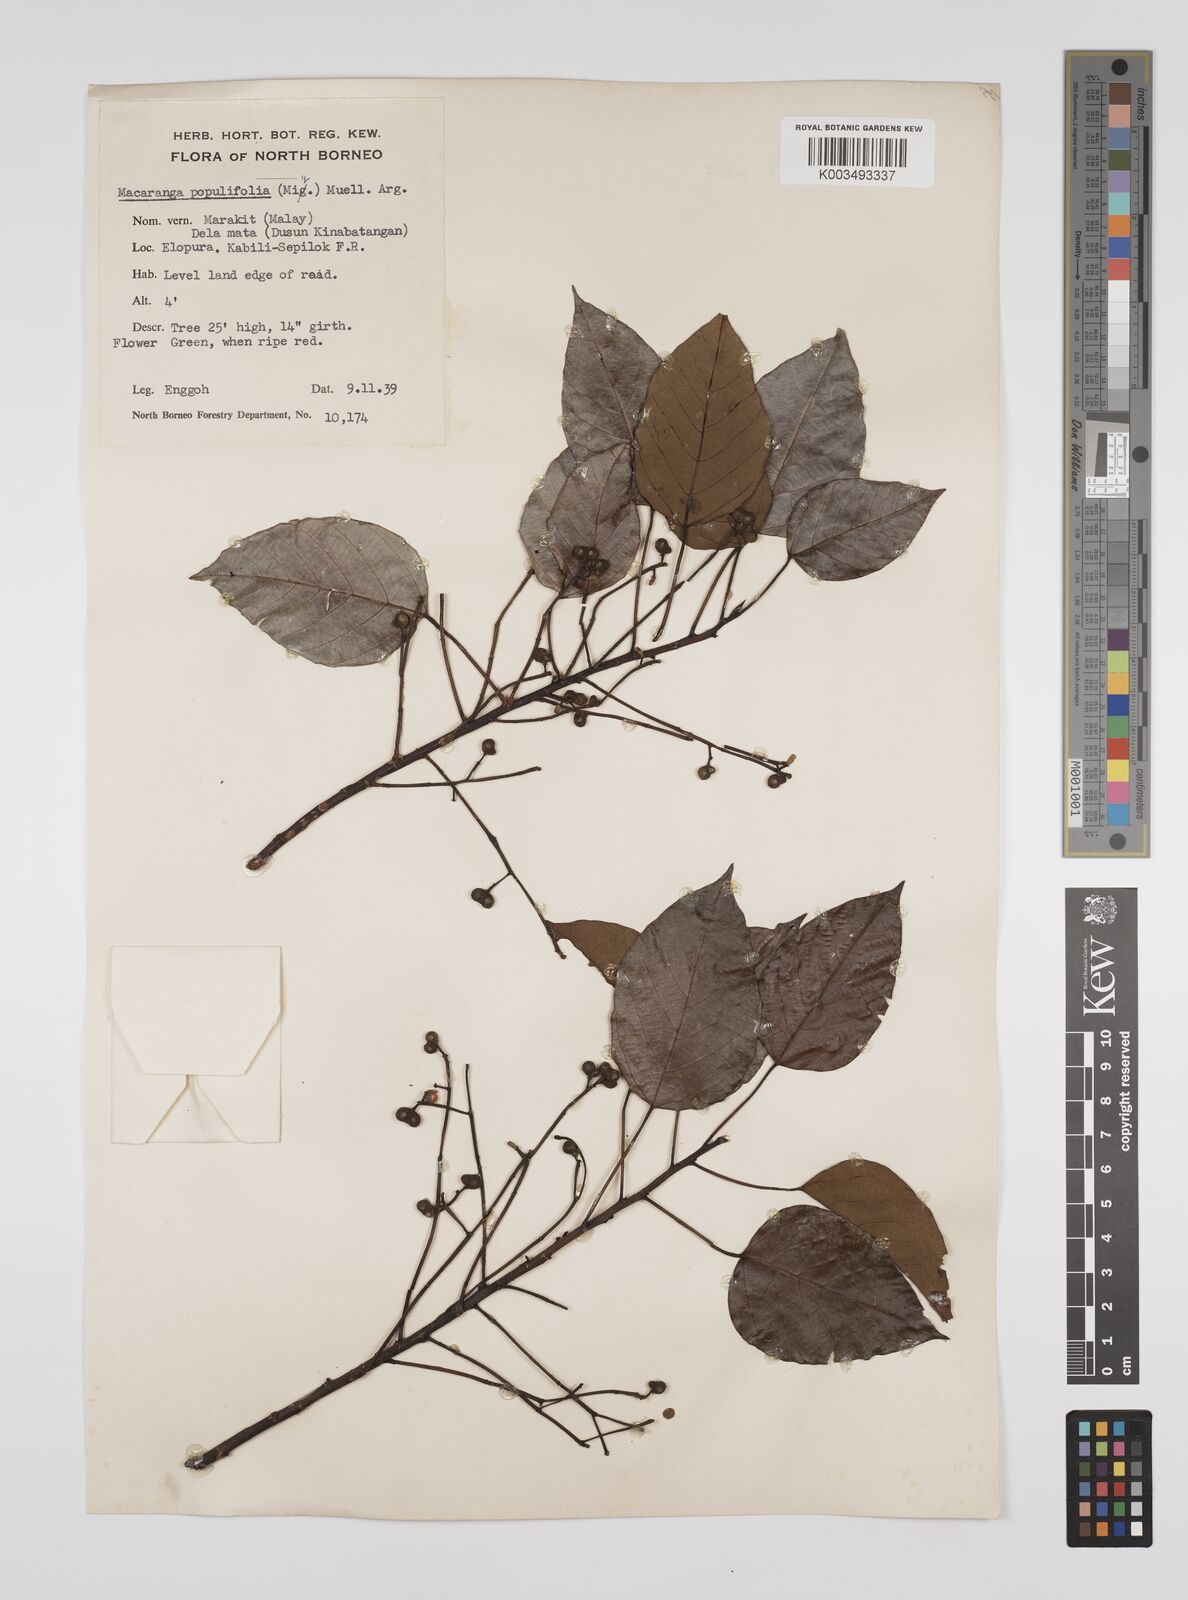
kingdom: Plantae
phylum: Tracheophyta
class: Magnoliopsida
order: Malpighiales
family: Euphorbiaceae
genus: Macaranga
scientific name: Macaranga conifera
